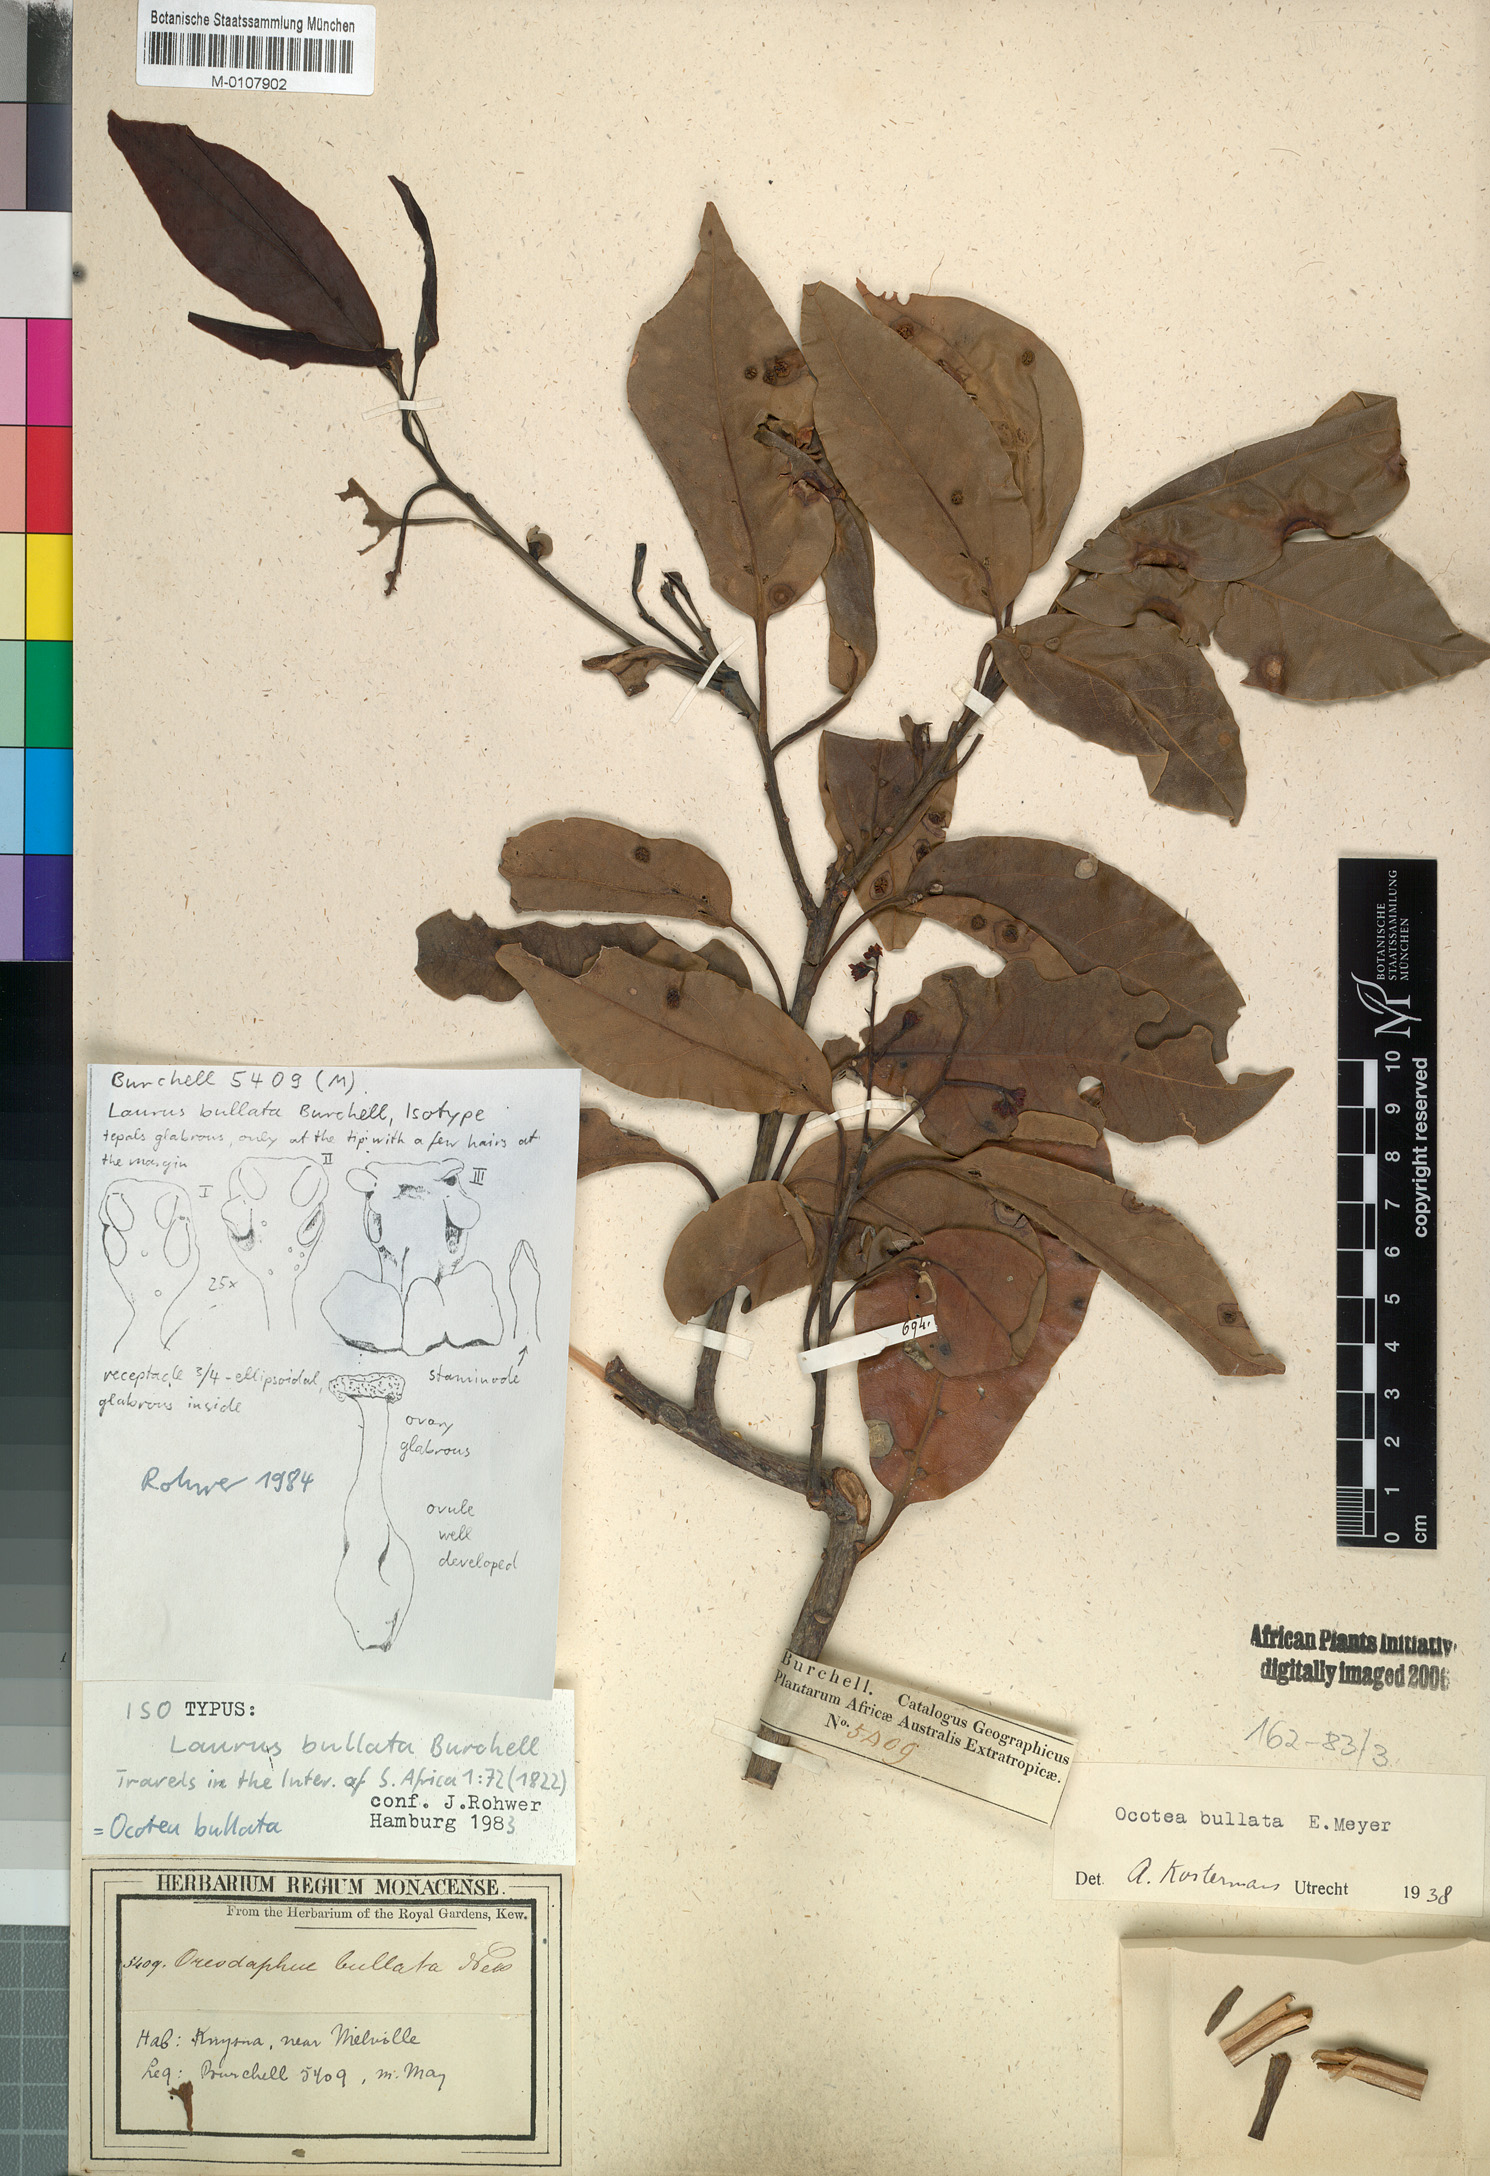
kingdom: Plantae
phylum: Tracheophyta
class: Magnoliopsida
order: Laurales
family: Lauraceae
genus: Mespilodaphne
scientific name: Mespilodaphne bullata
